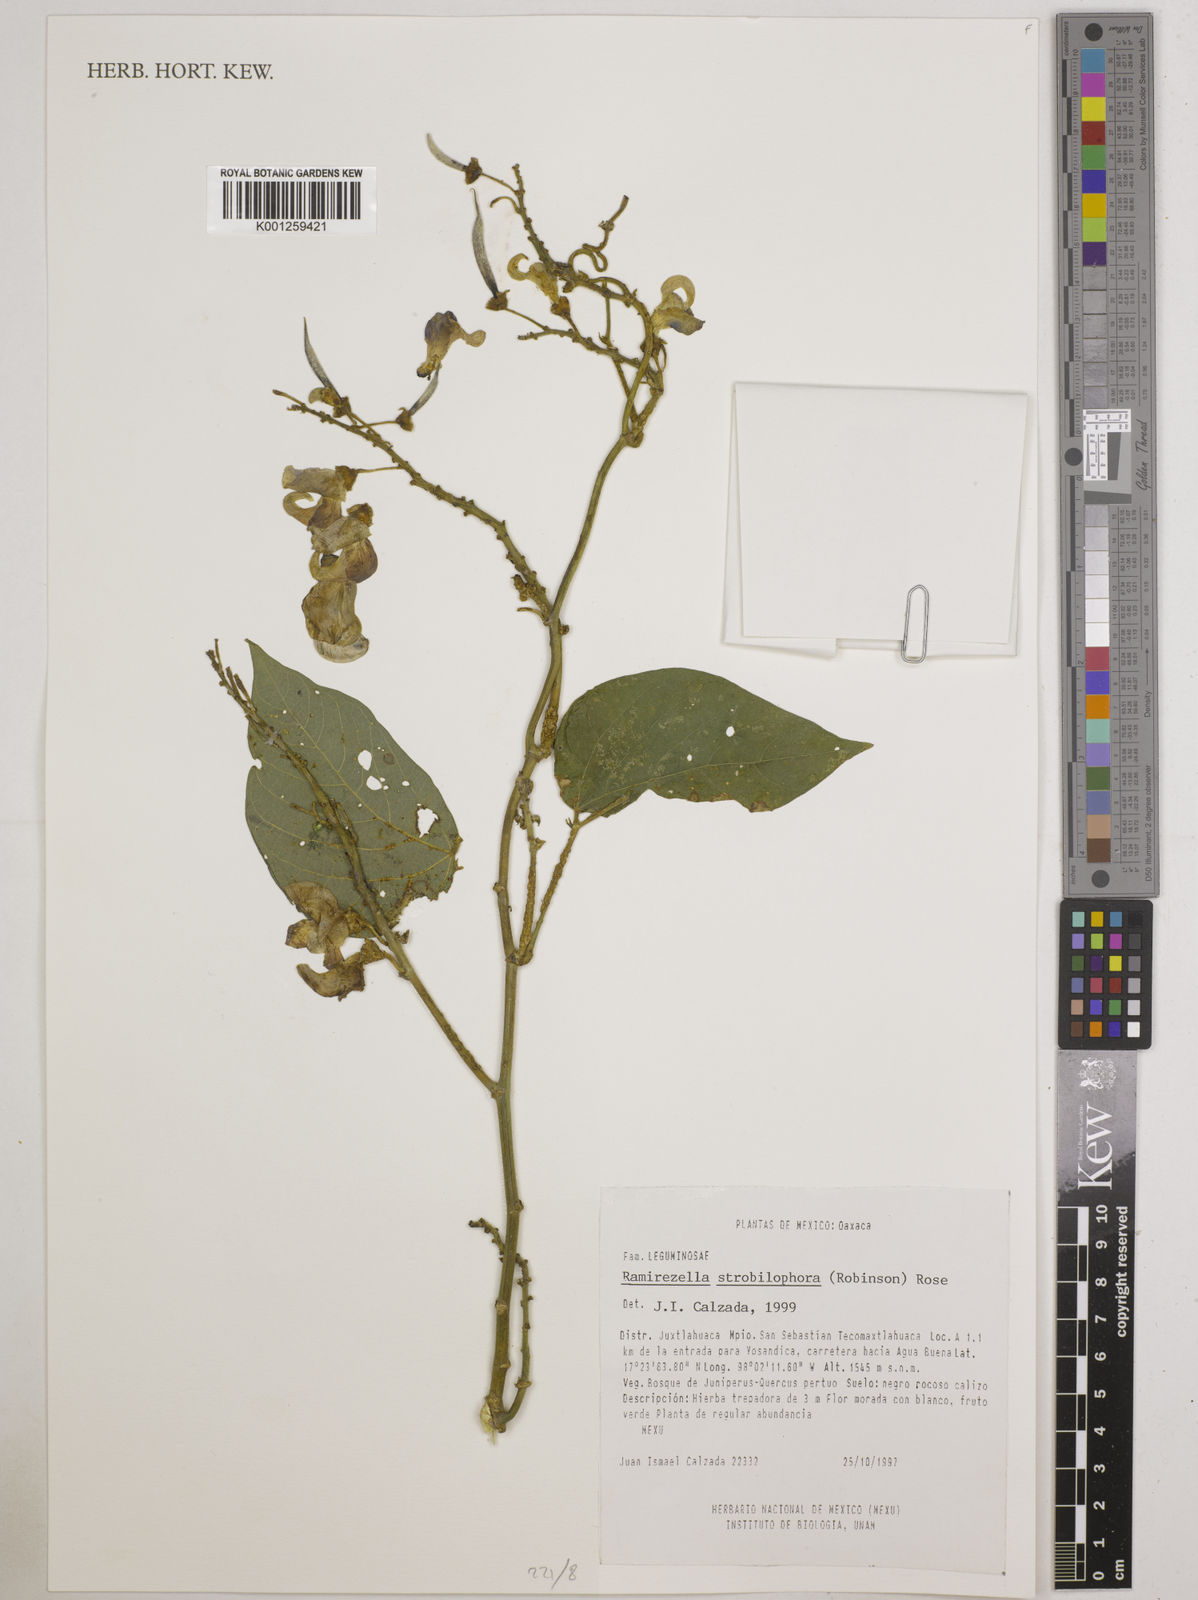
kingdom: Plantae
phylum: Tracheophyta
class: Magnoliopsida
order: Fabales
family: Fabaceae
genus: Ramirezella
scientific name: Ramirezella strobilophora
